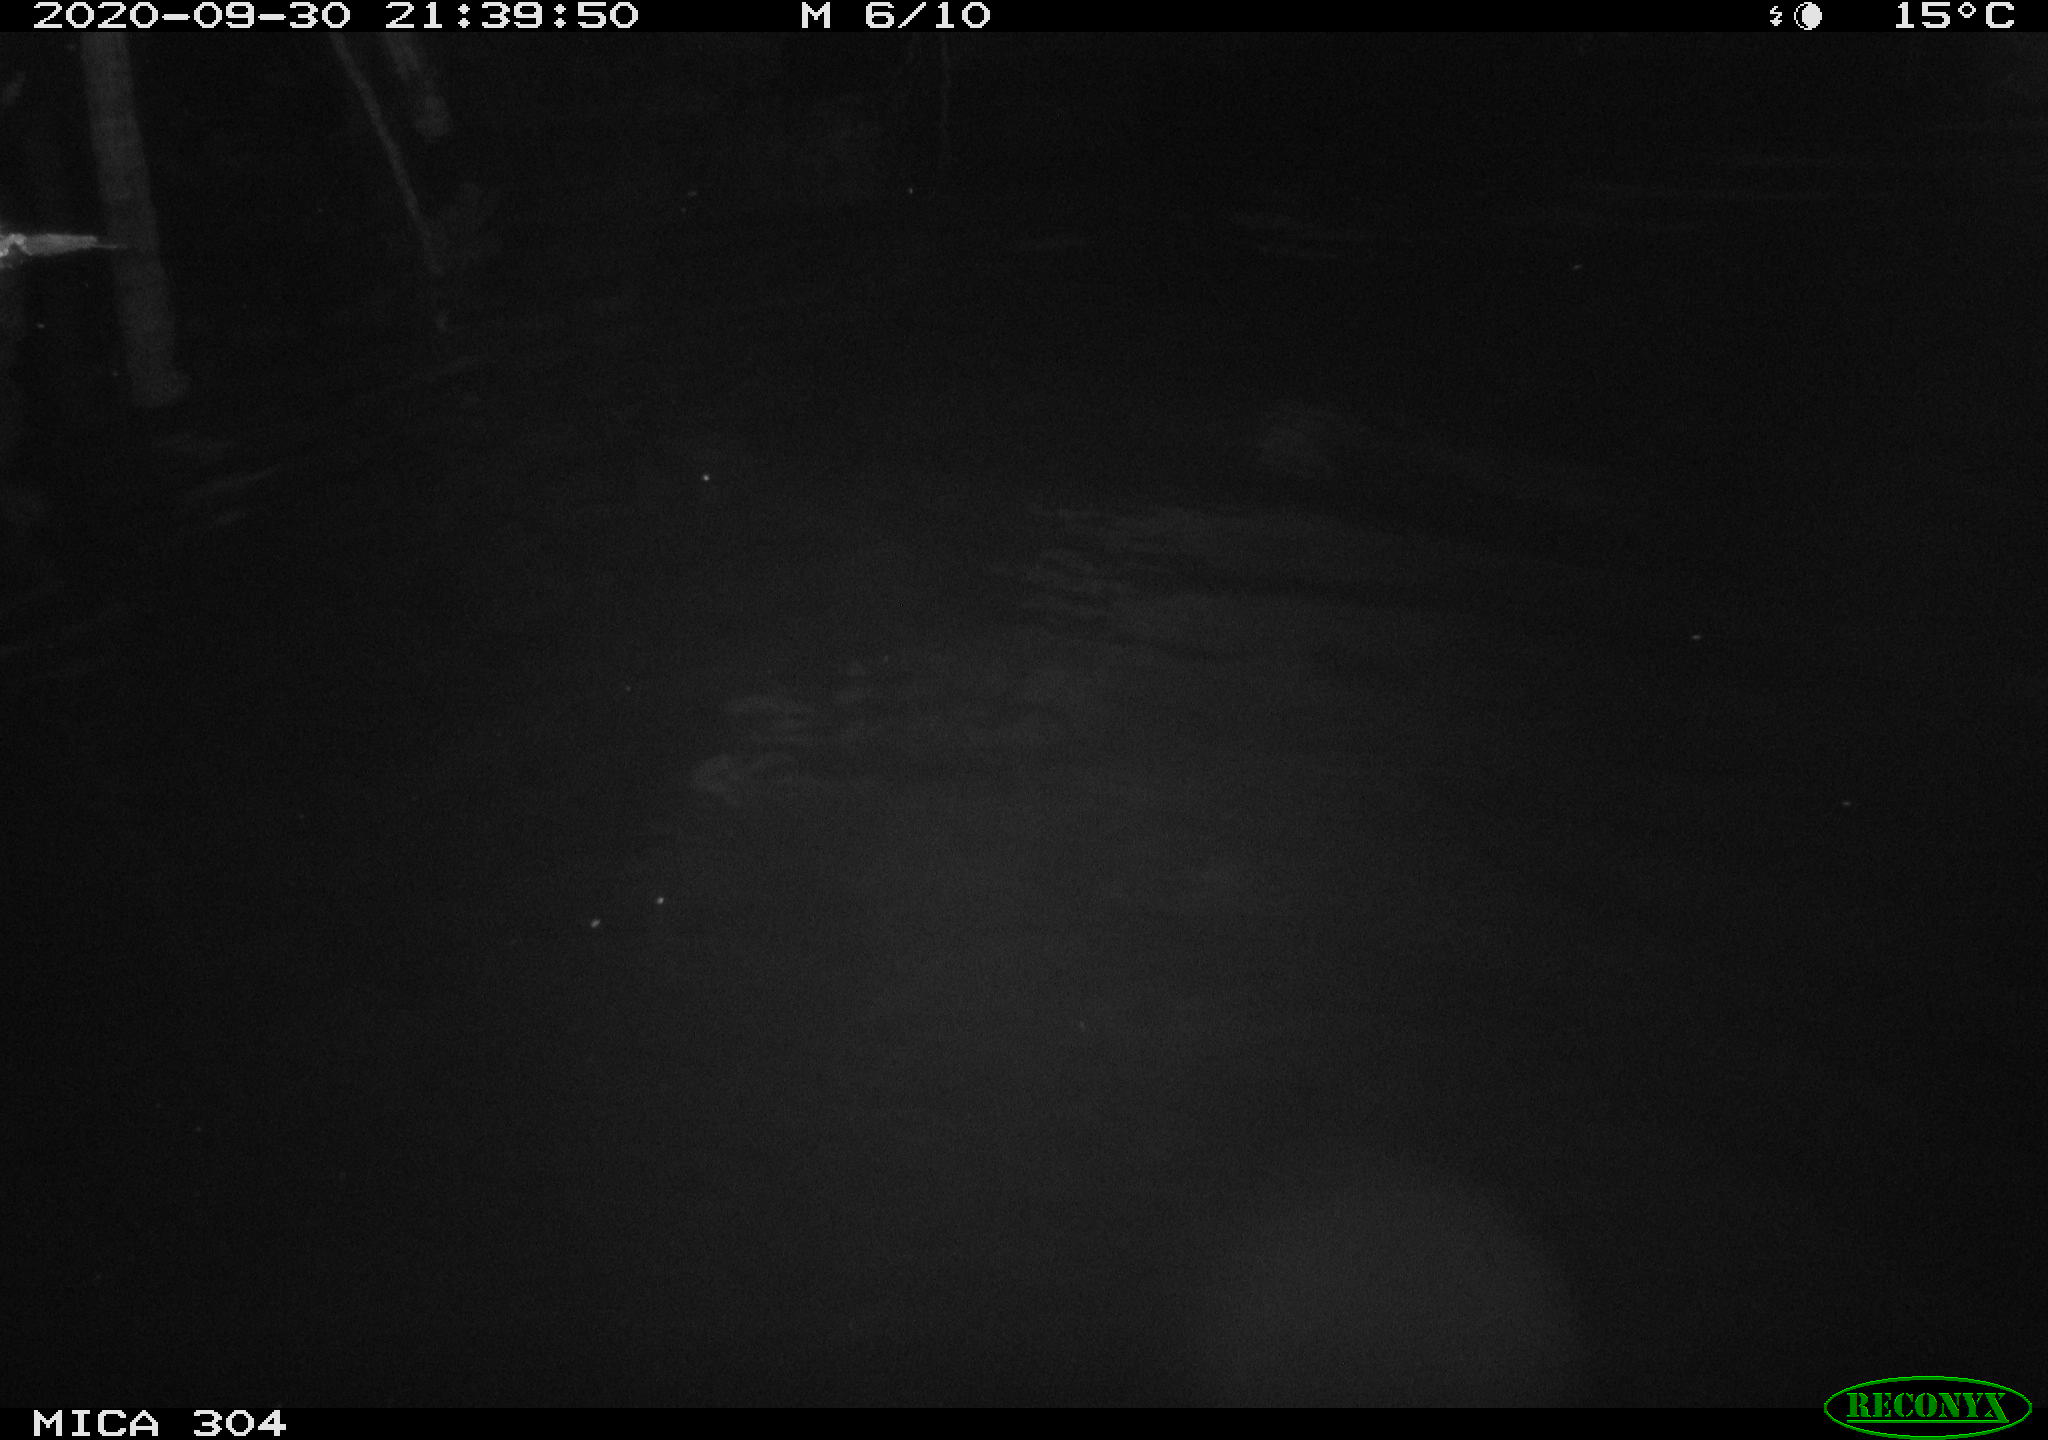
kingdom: Animalia
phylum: Chordata
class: Mammalia
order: Rodentia
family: Muridae
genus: Rattus
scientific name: Rattus norvegicus
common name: Brown rat
